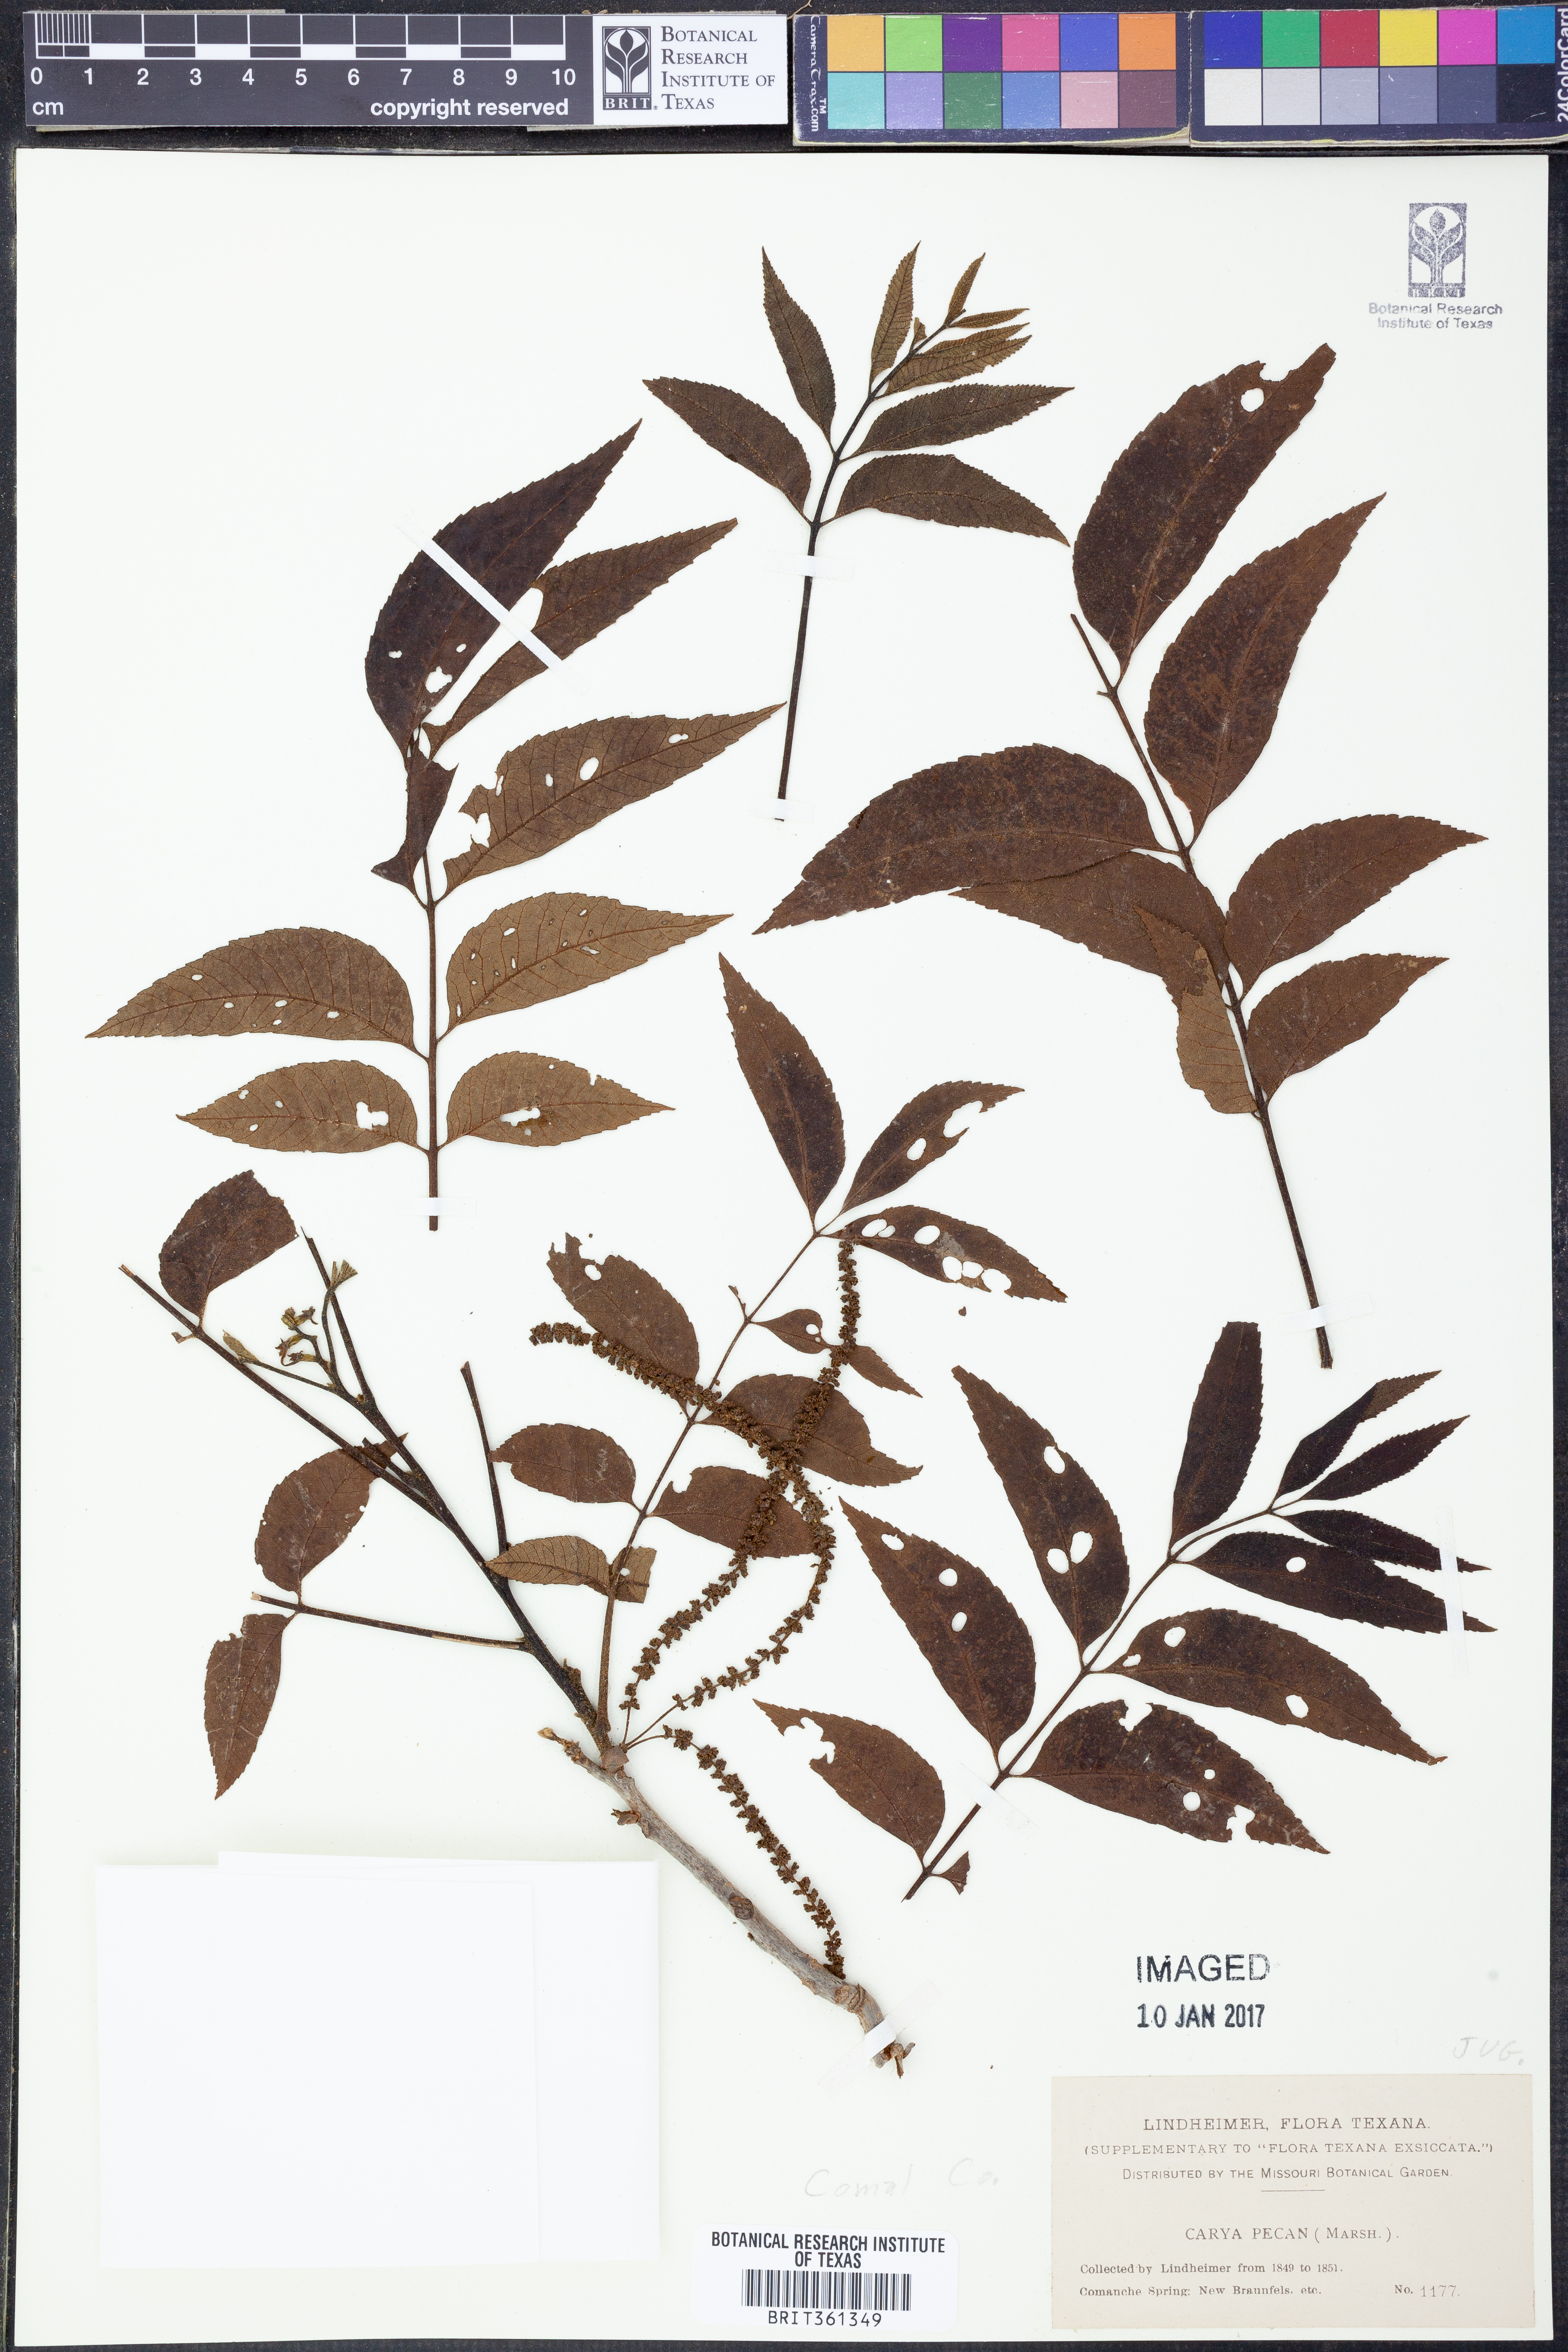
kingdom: Plantae
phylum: Tracheophyta
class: Magnoliopsida
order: Fagales
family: Juglandaceae
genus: Carya
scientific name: Carya illinoinensis
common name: Pecan
